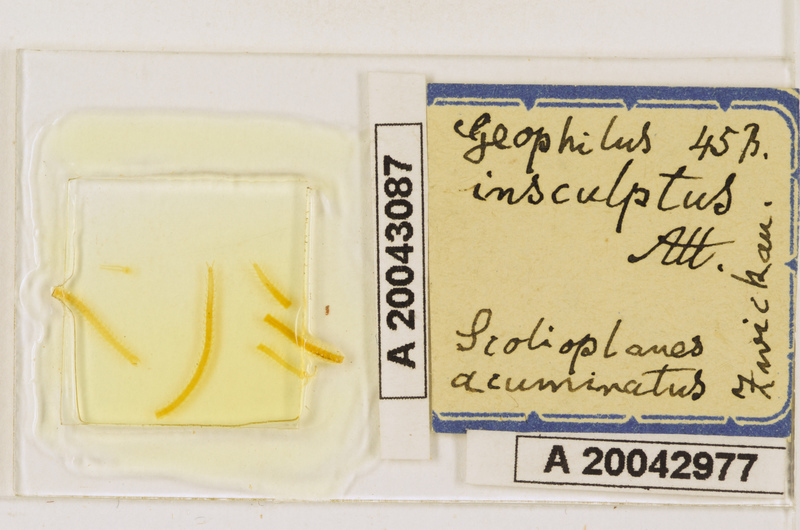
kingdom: Animalia
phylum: Arthropoda
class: Chilopoda
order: Geophilomorpha
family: Linotaeniidae
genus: Strigamia
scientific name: Strigamia acuminata
